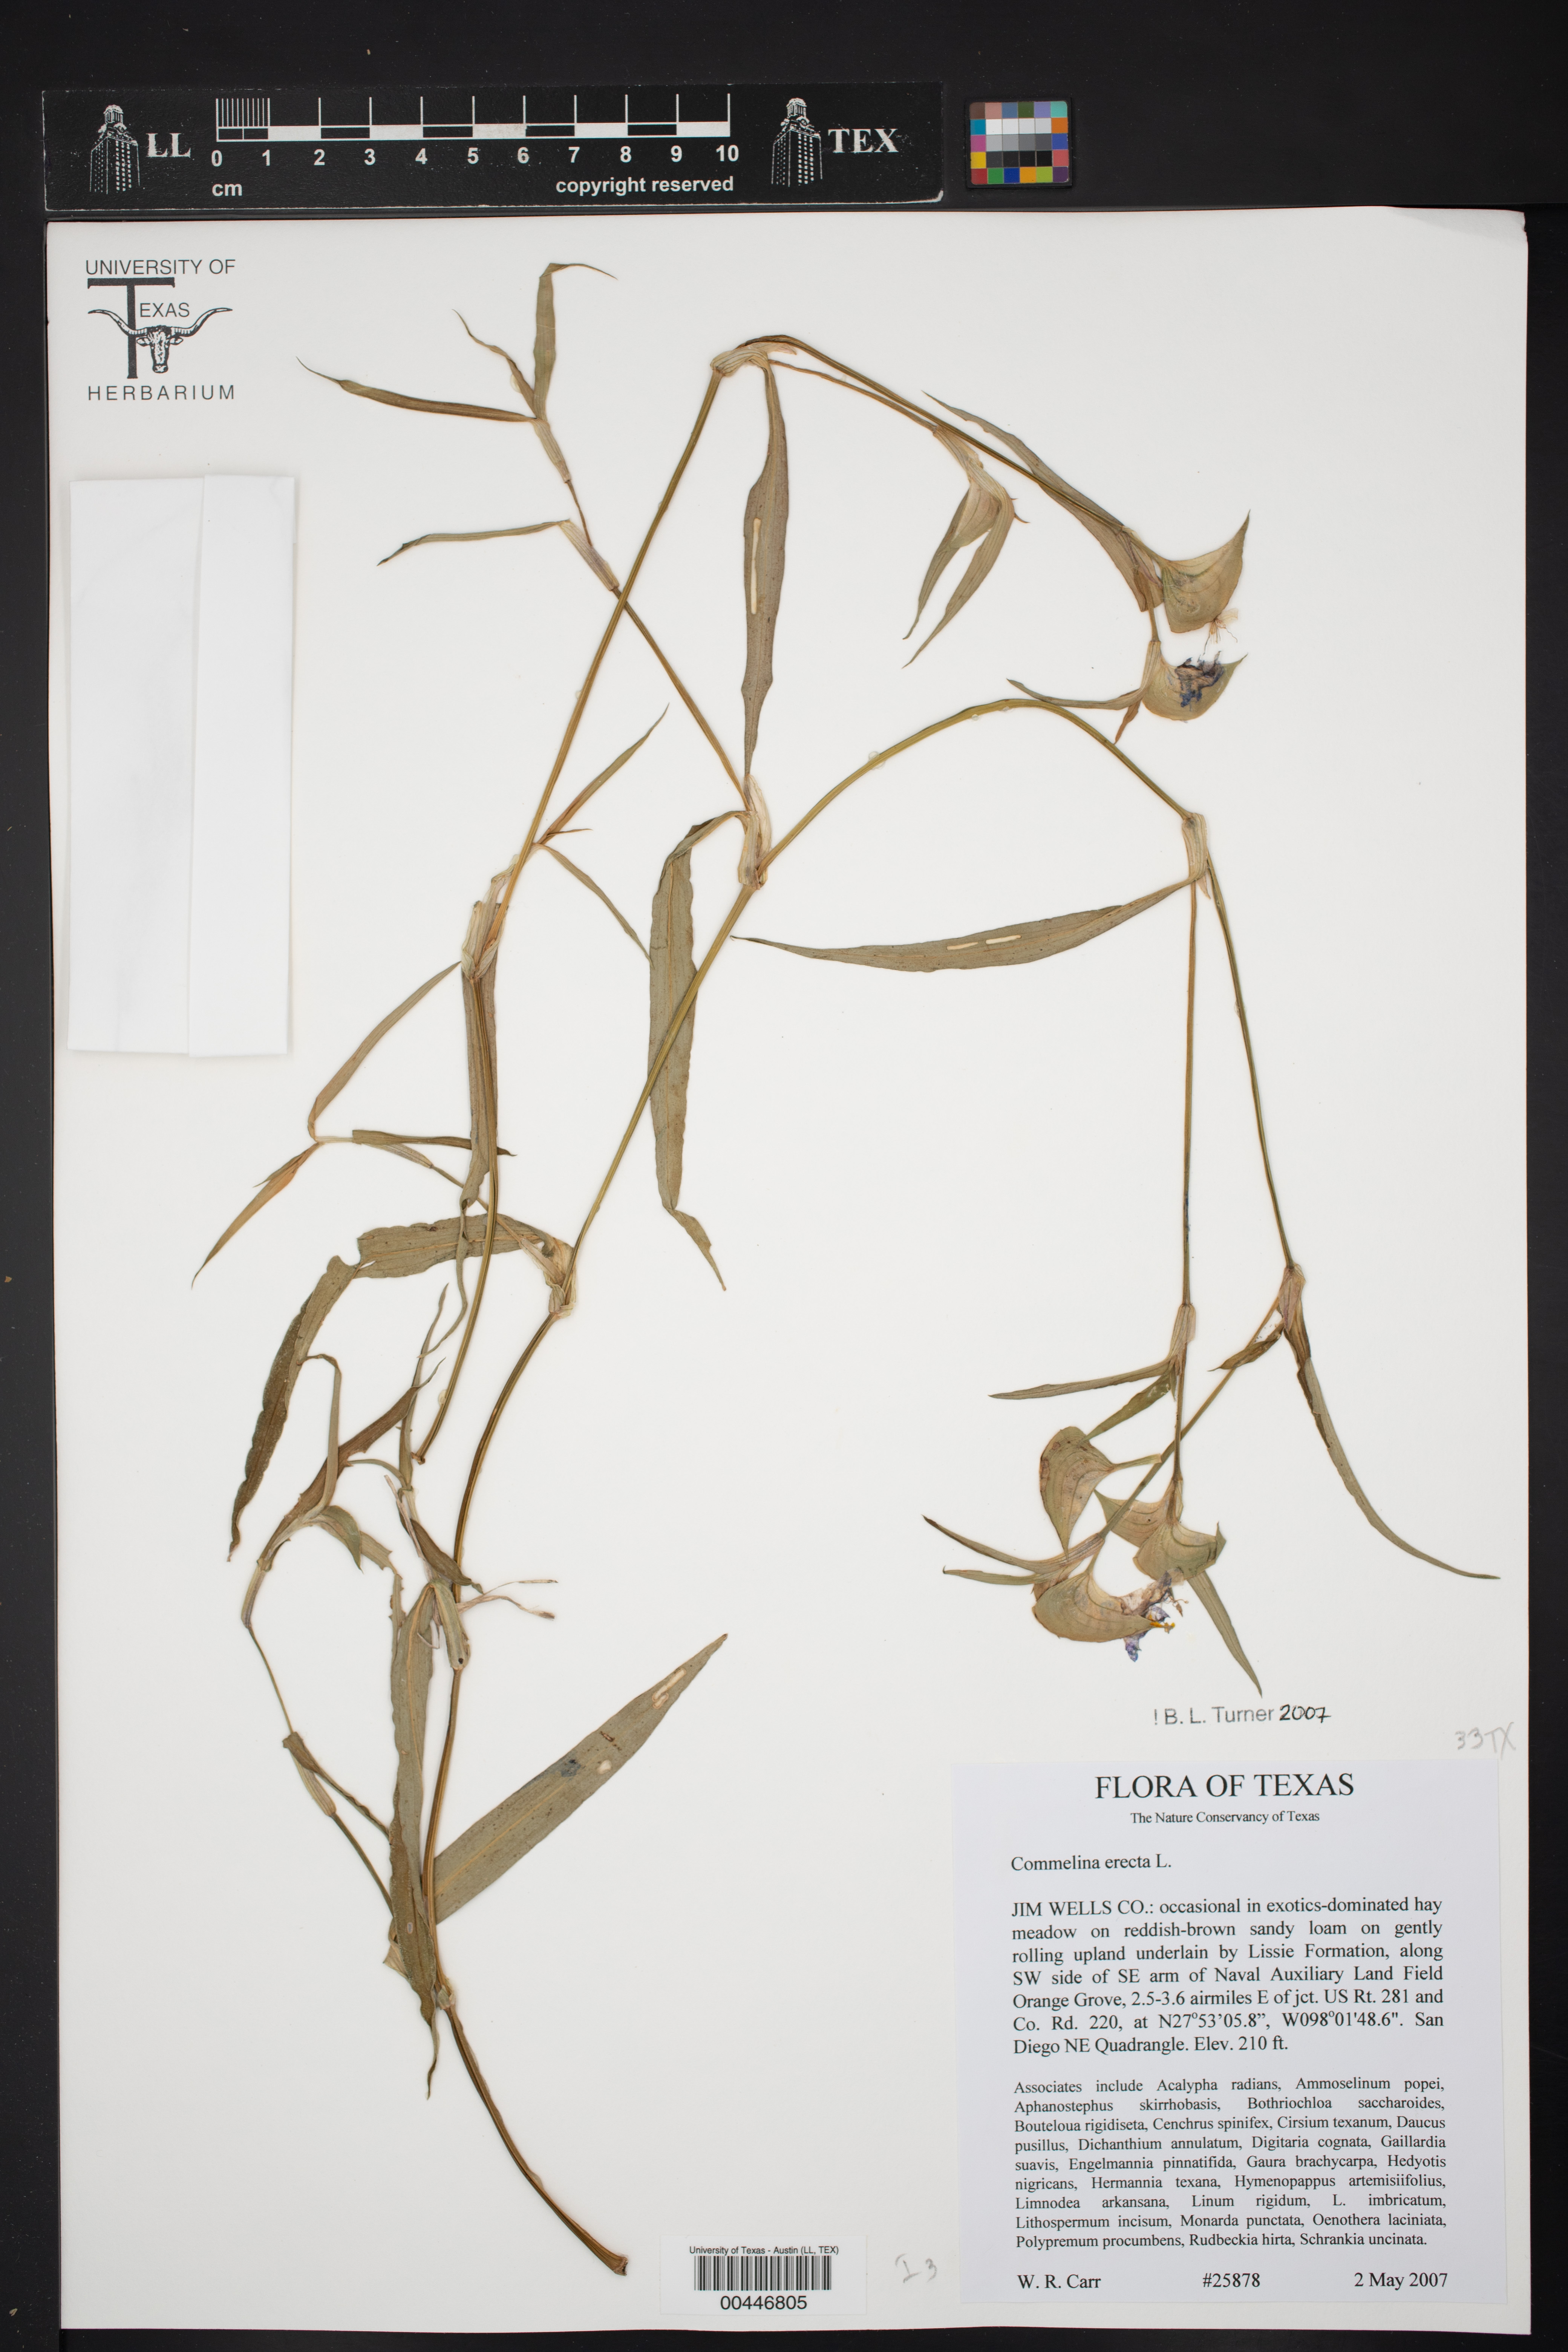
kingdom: Plantae
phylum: Tracheophyta
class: Liliopsida
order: Commelinales
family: Commelinaceae
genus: Commelina
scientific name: Commelina erecta
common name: Blousel blommetjie
